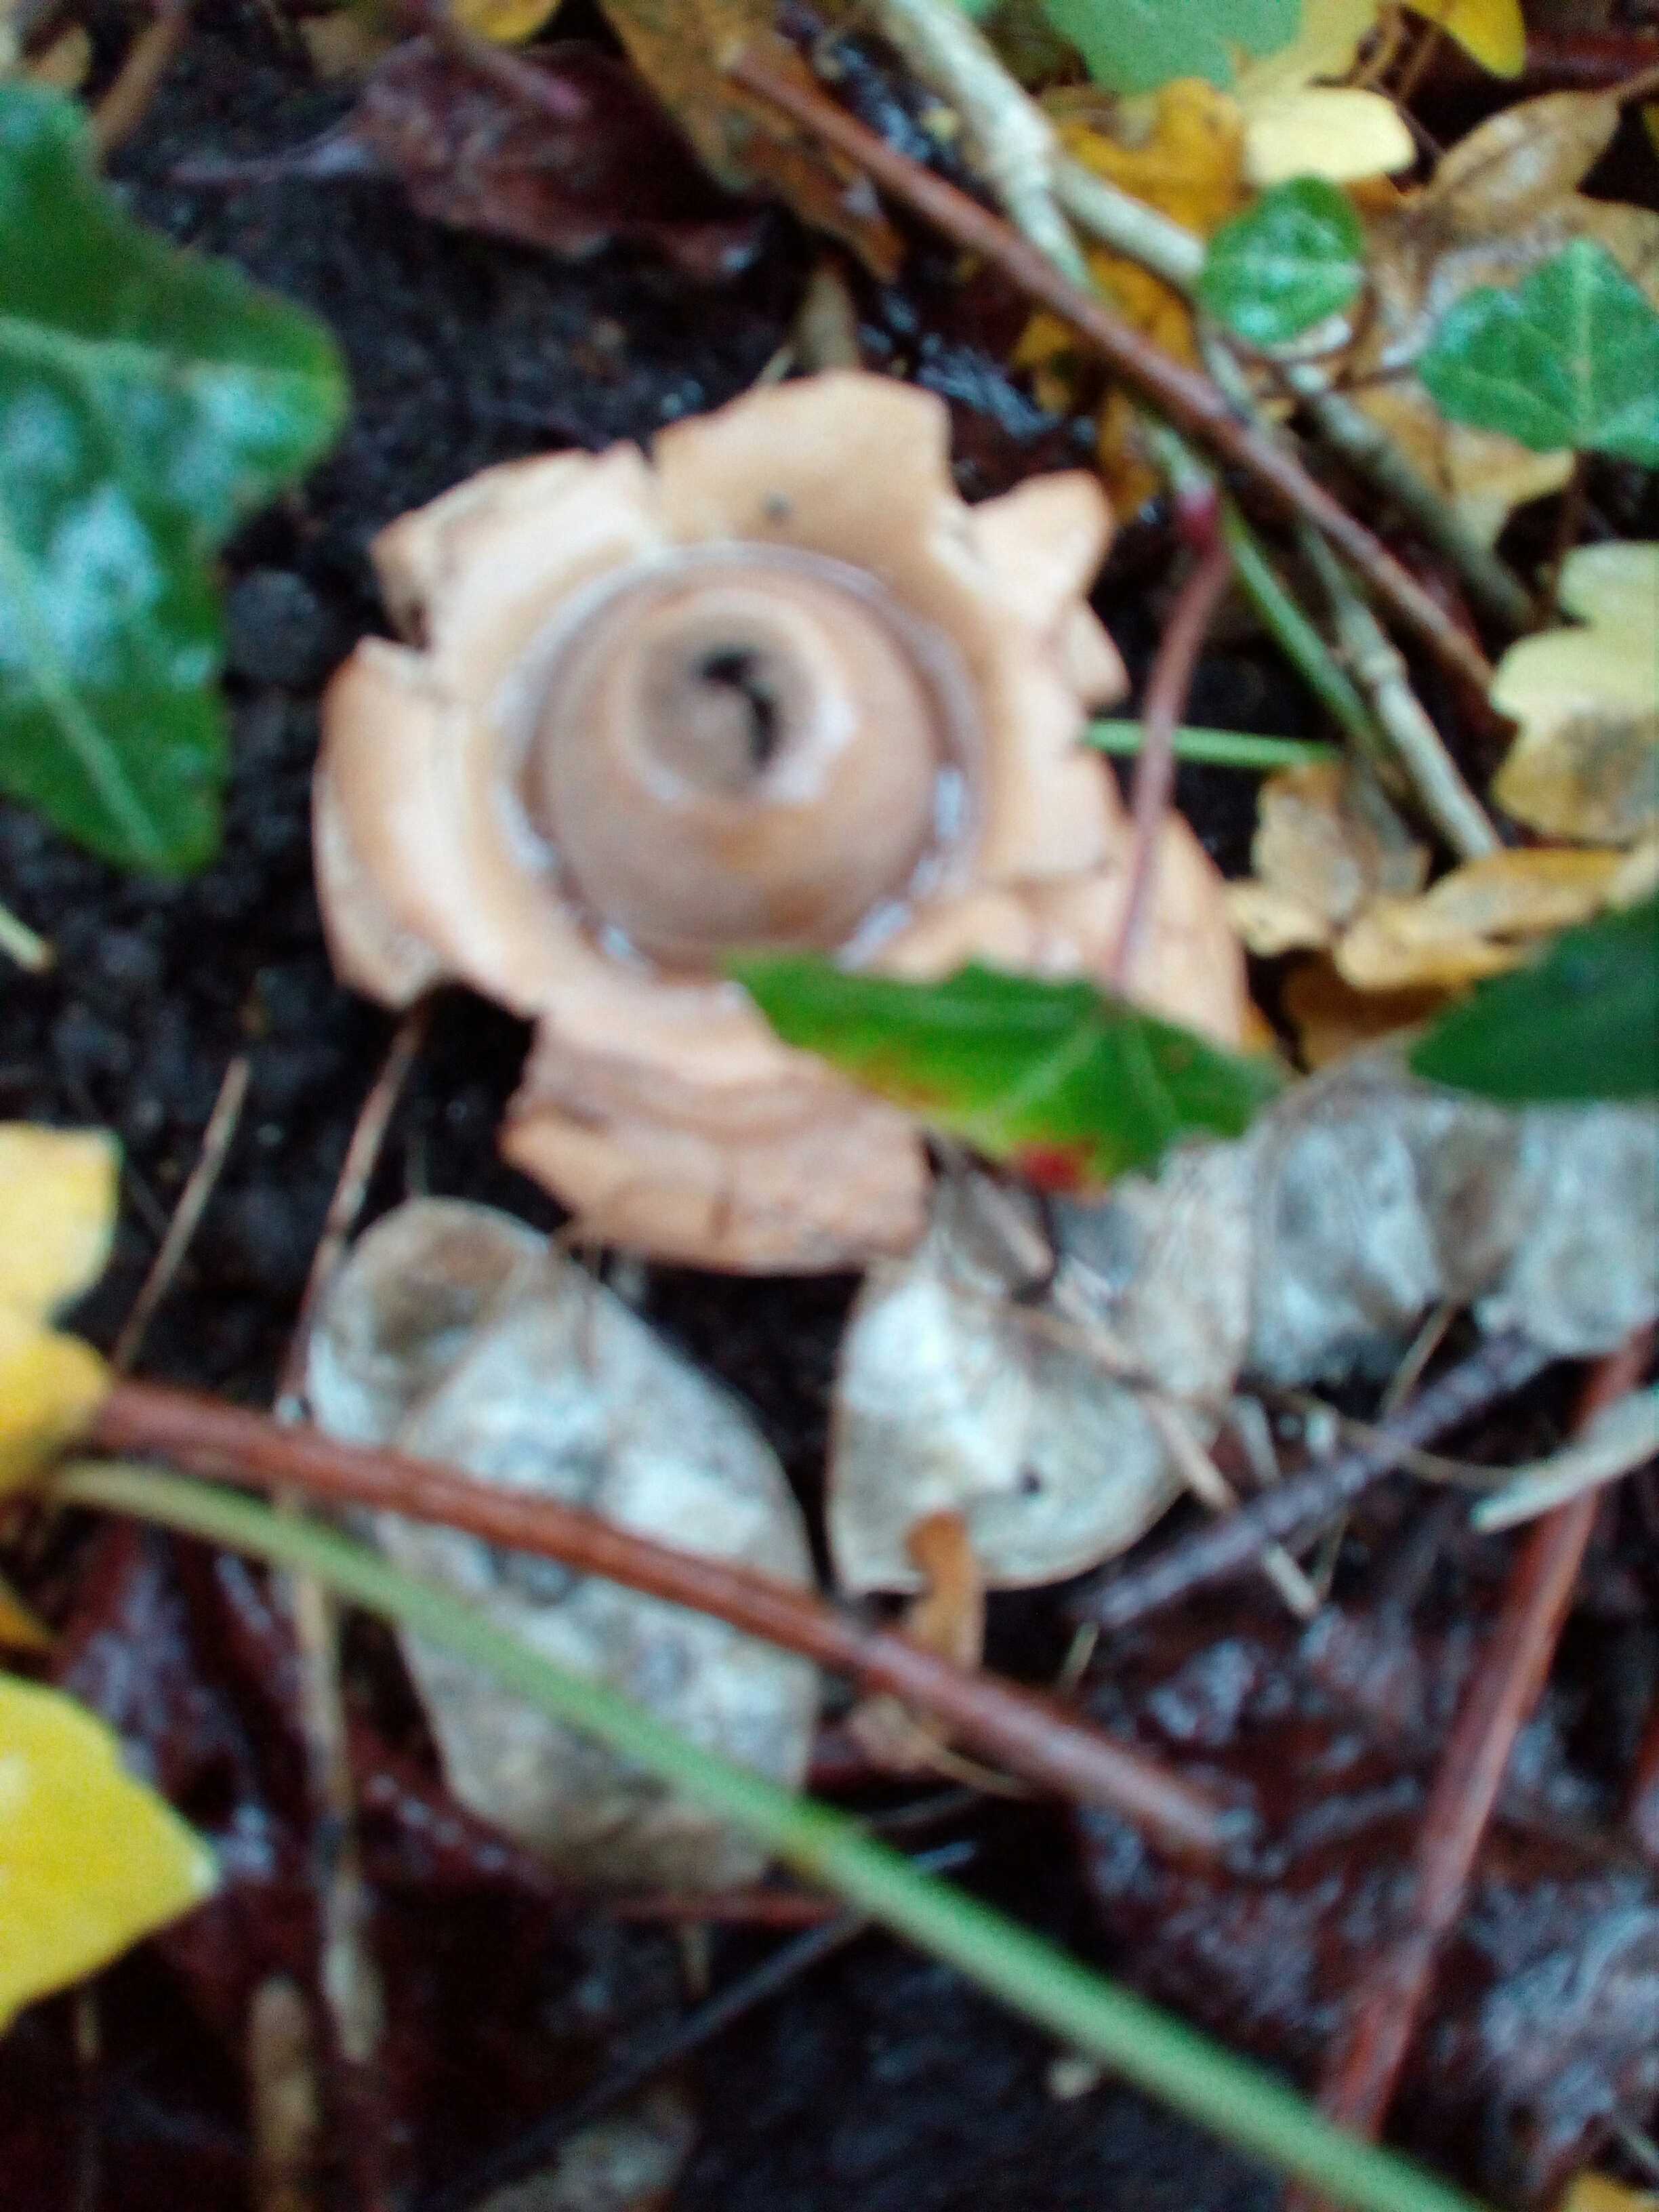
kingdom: Fungi
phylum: Basidiomycota
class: Agaricomycetes
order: Geastrales
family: Geastraceae
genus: Geastrum
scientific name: Geastrum michelianum
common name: kødet stjernebold
